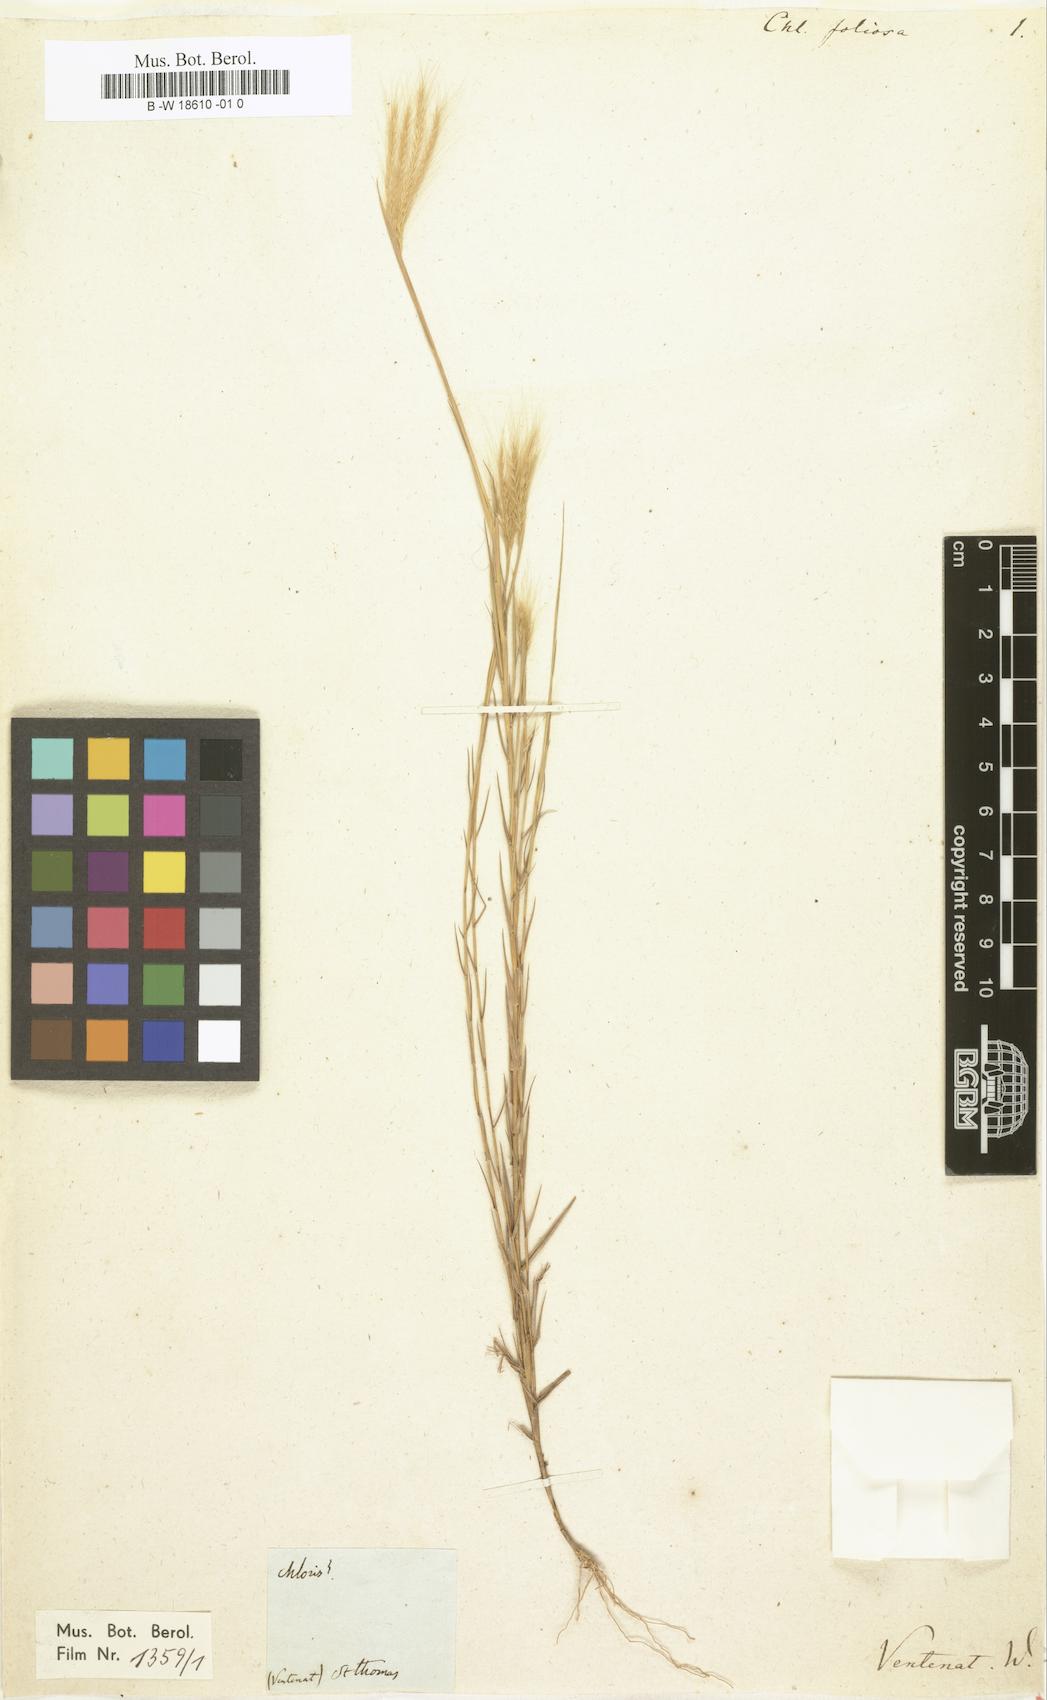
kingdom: Plantae
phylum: Tracheophyta
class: Liliopsida
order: Poales
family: Poaceae
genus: Gymnopogon
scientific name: Gymnopogon foliosus
